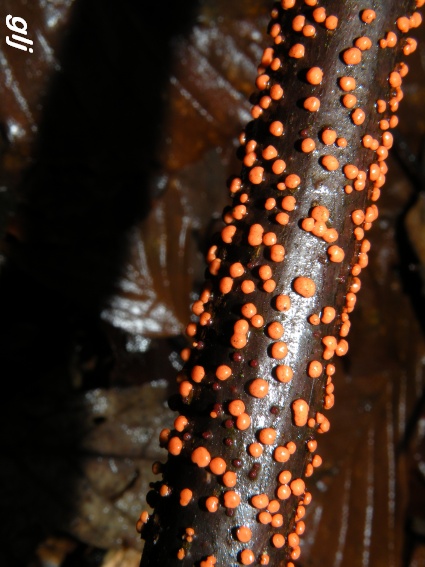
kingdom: Fungi
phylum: Ascomycota
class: Sordariomycetes
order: Hypocreales
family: Nectriaceae
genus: Nectria
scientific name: Nectria cinnabarina
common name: almindelig cinnobersvamp
